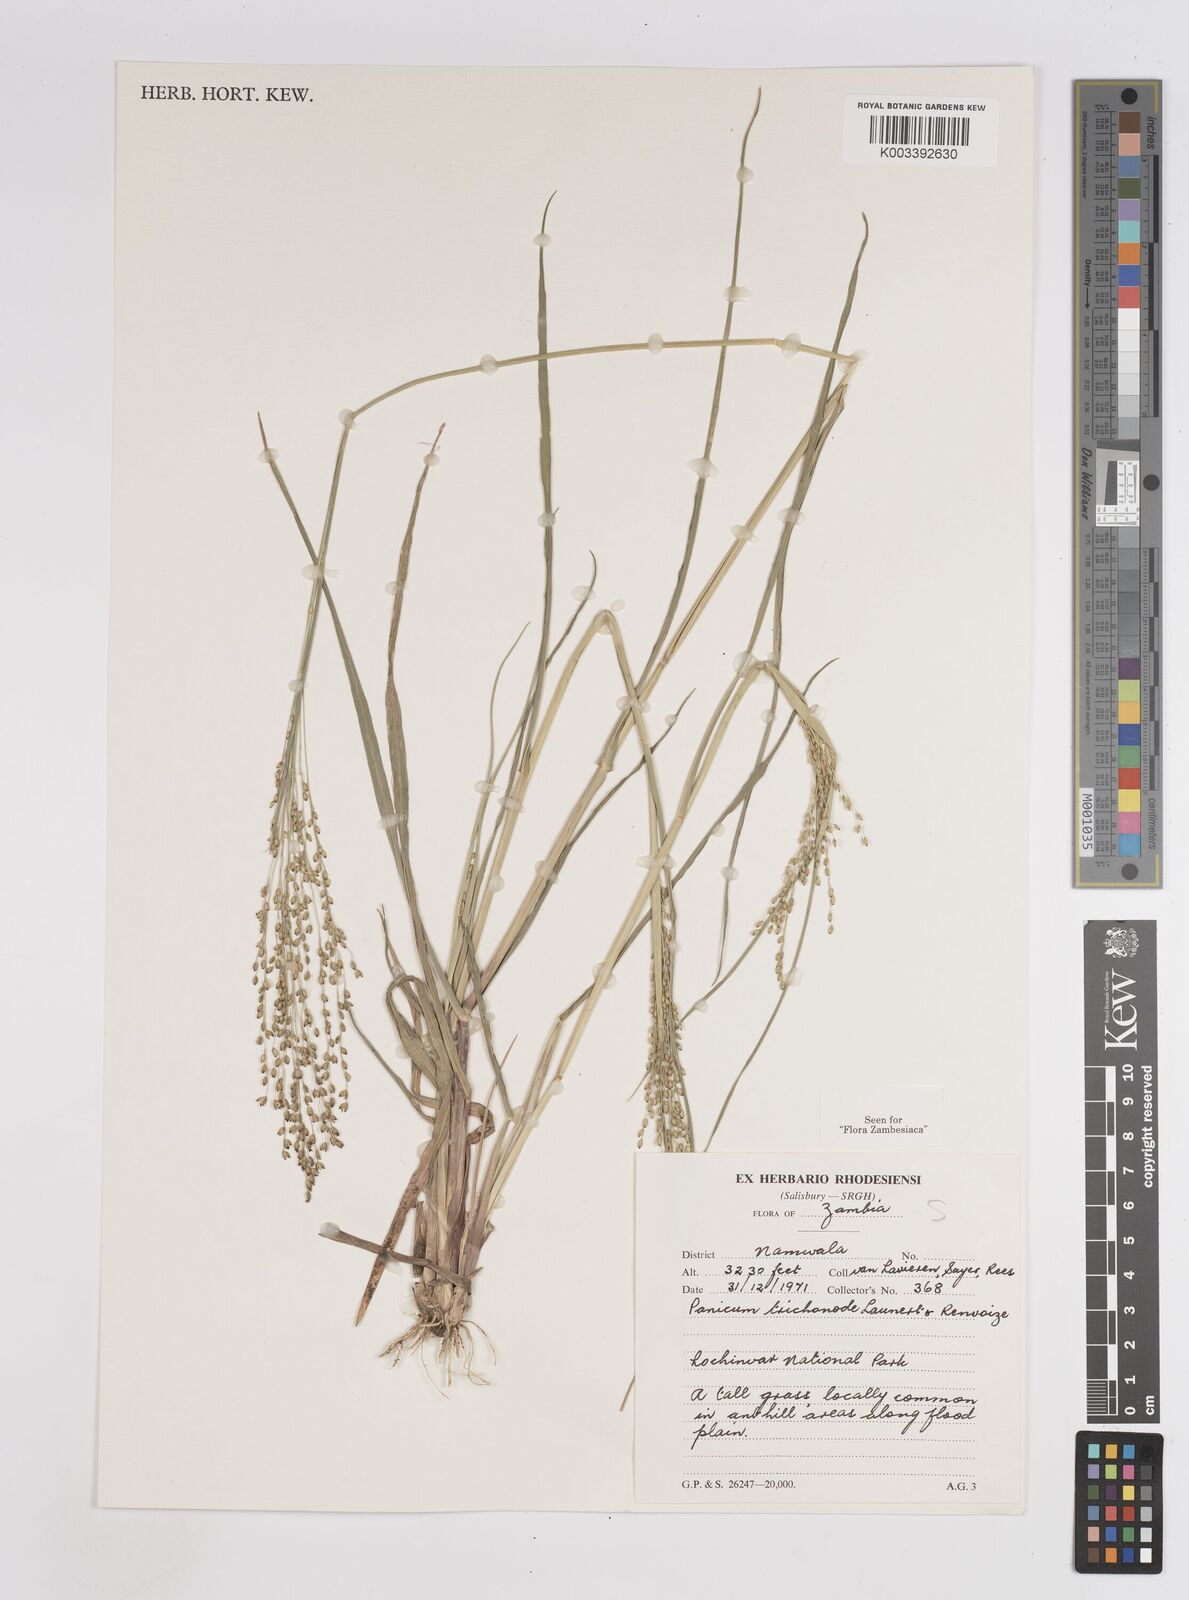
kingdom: Plantae
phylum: Tracheophyta
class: Liliopsida
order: Poales
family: Poaceae
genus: Panicum
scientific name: Panicum trichonode
